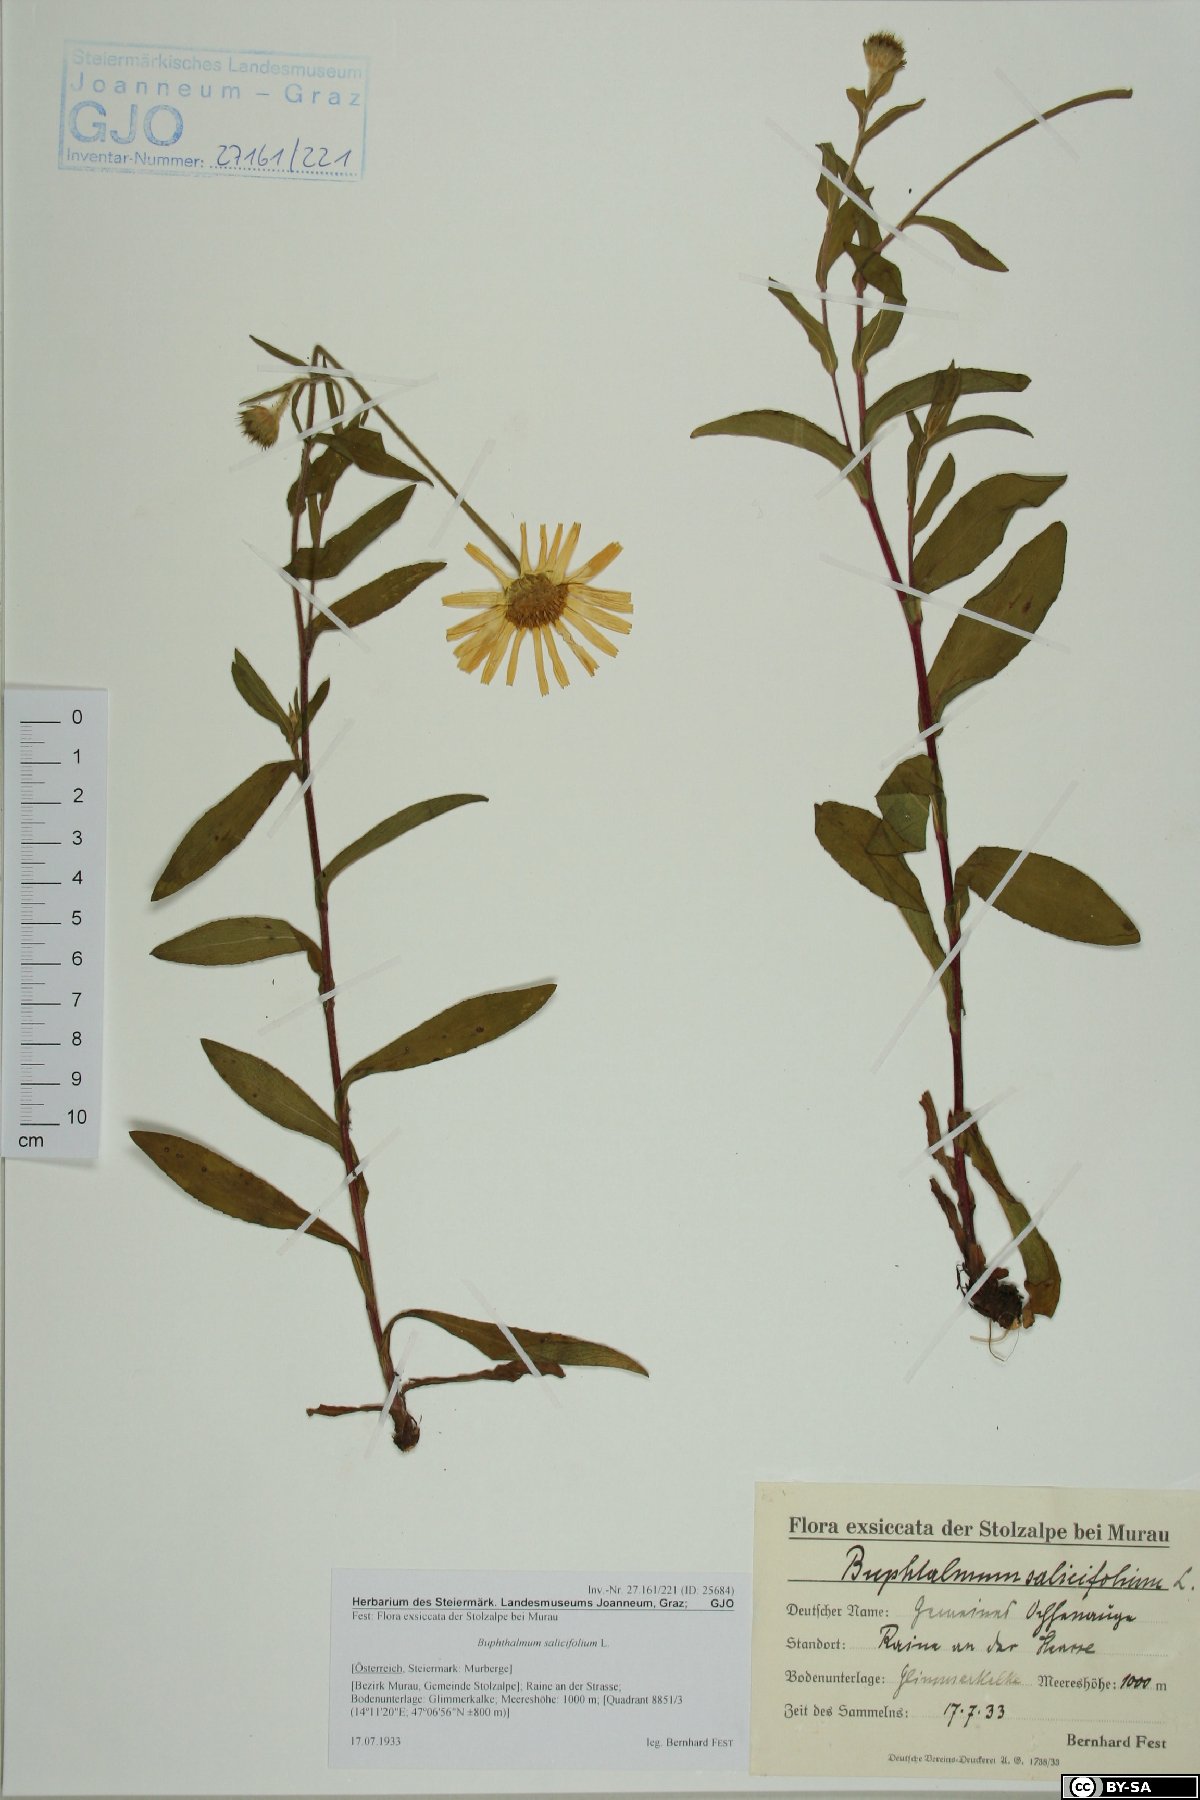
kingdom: Plantae
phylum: Tracheophyta
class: Magnoliopsida
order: Asterales
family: Asteraceae
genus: Buphthalmum
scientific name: Buphthalmum salicifolium
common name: Willow-leaved yellow-oxeye
